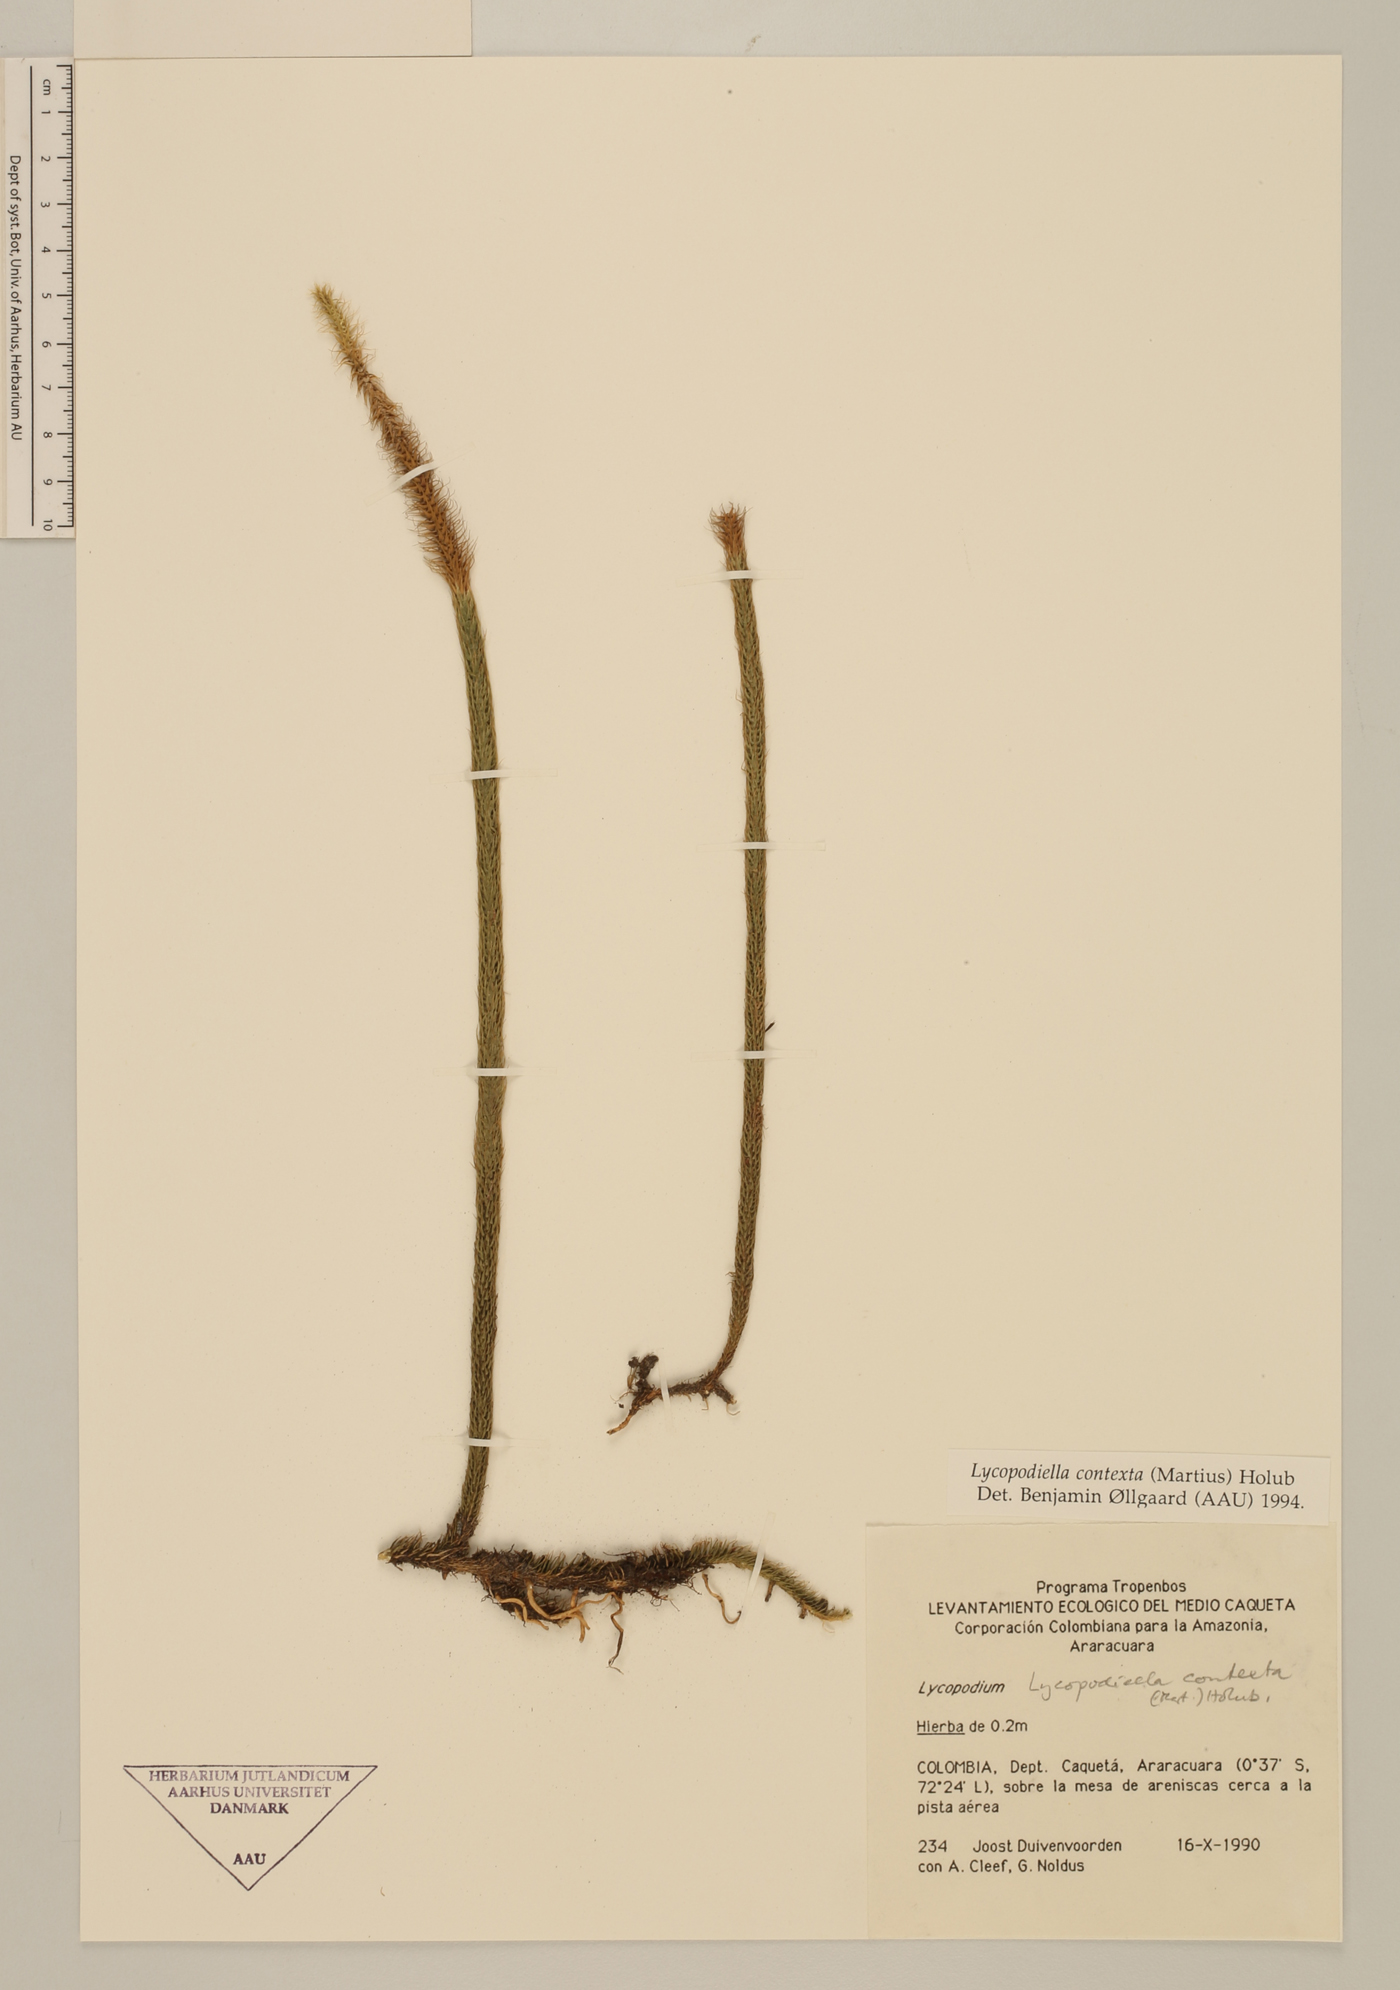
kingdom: Plantae
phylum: Tracheophyta
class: Lycopodiopsida
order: Lycopodiales
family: Lycopodiaceae
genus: Pseudolycopodiella
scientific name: Pseudolycopodiella contexta
